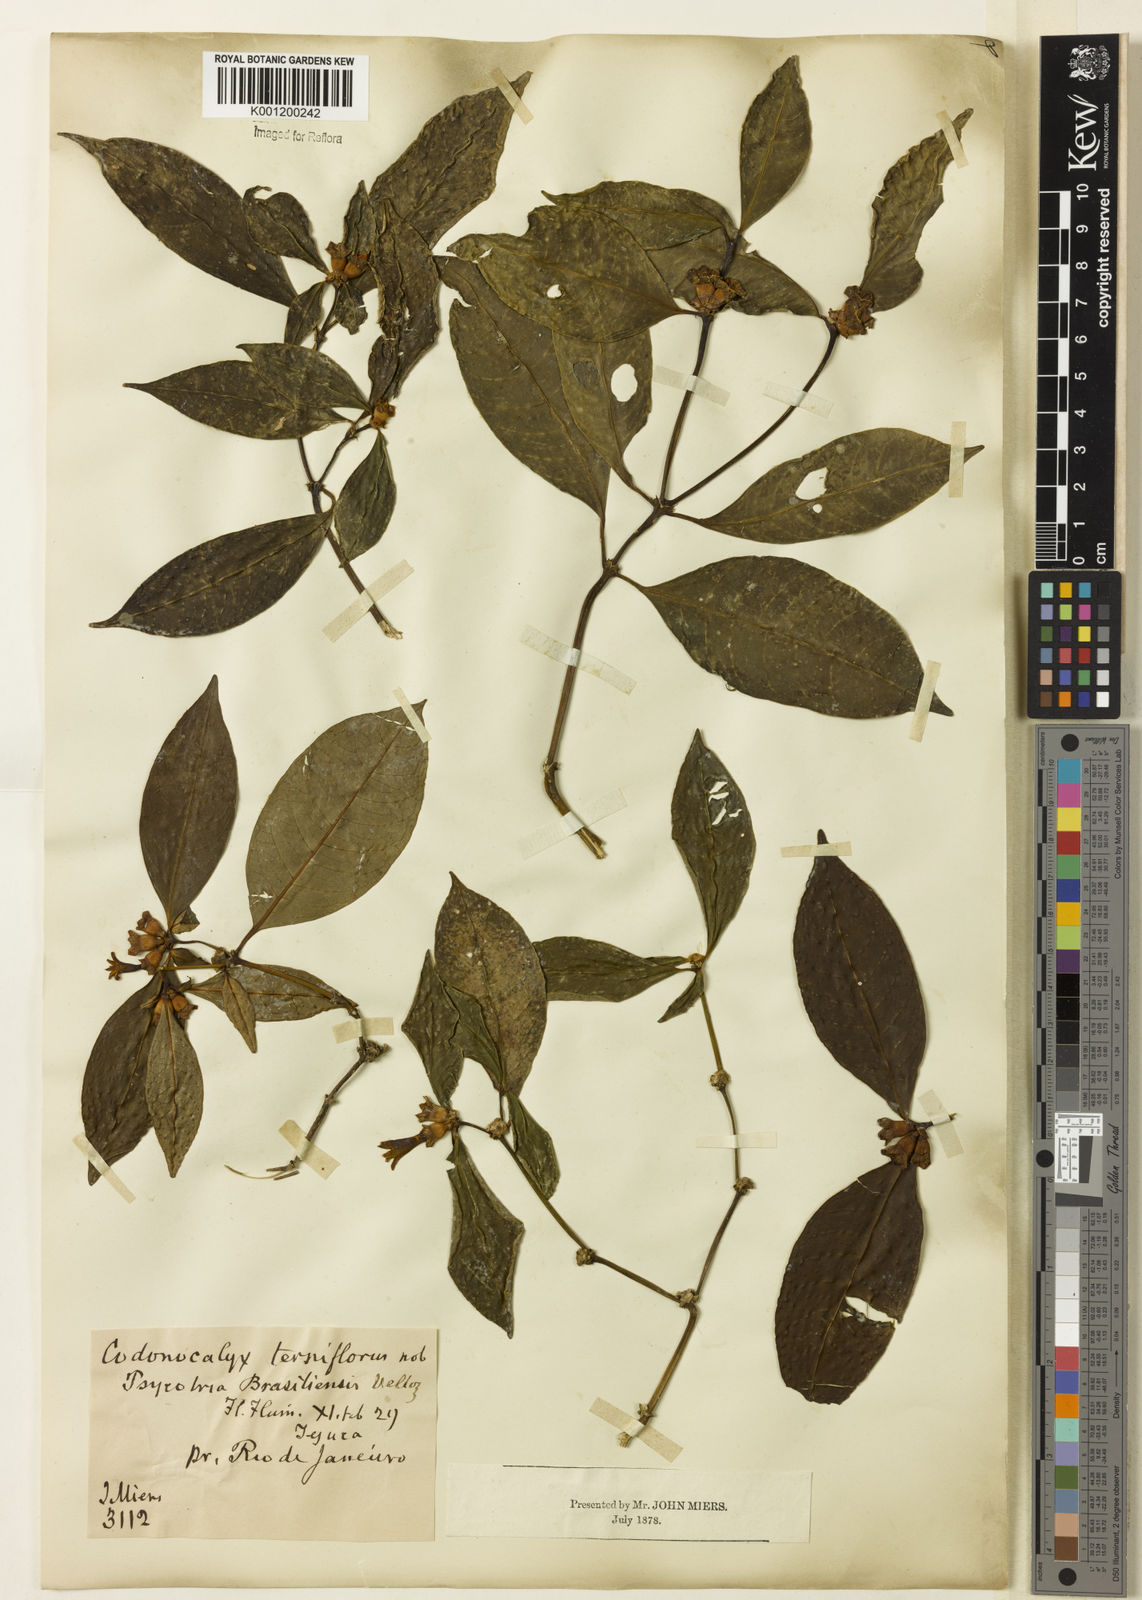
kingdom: Plantae
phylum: Tracheophyta
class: Magnoliopsida
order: Gentianales
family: Rubiaceae
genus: Psychotria
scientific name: Psychotria
